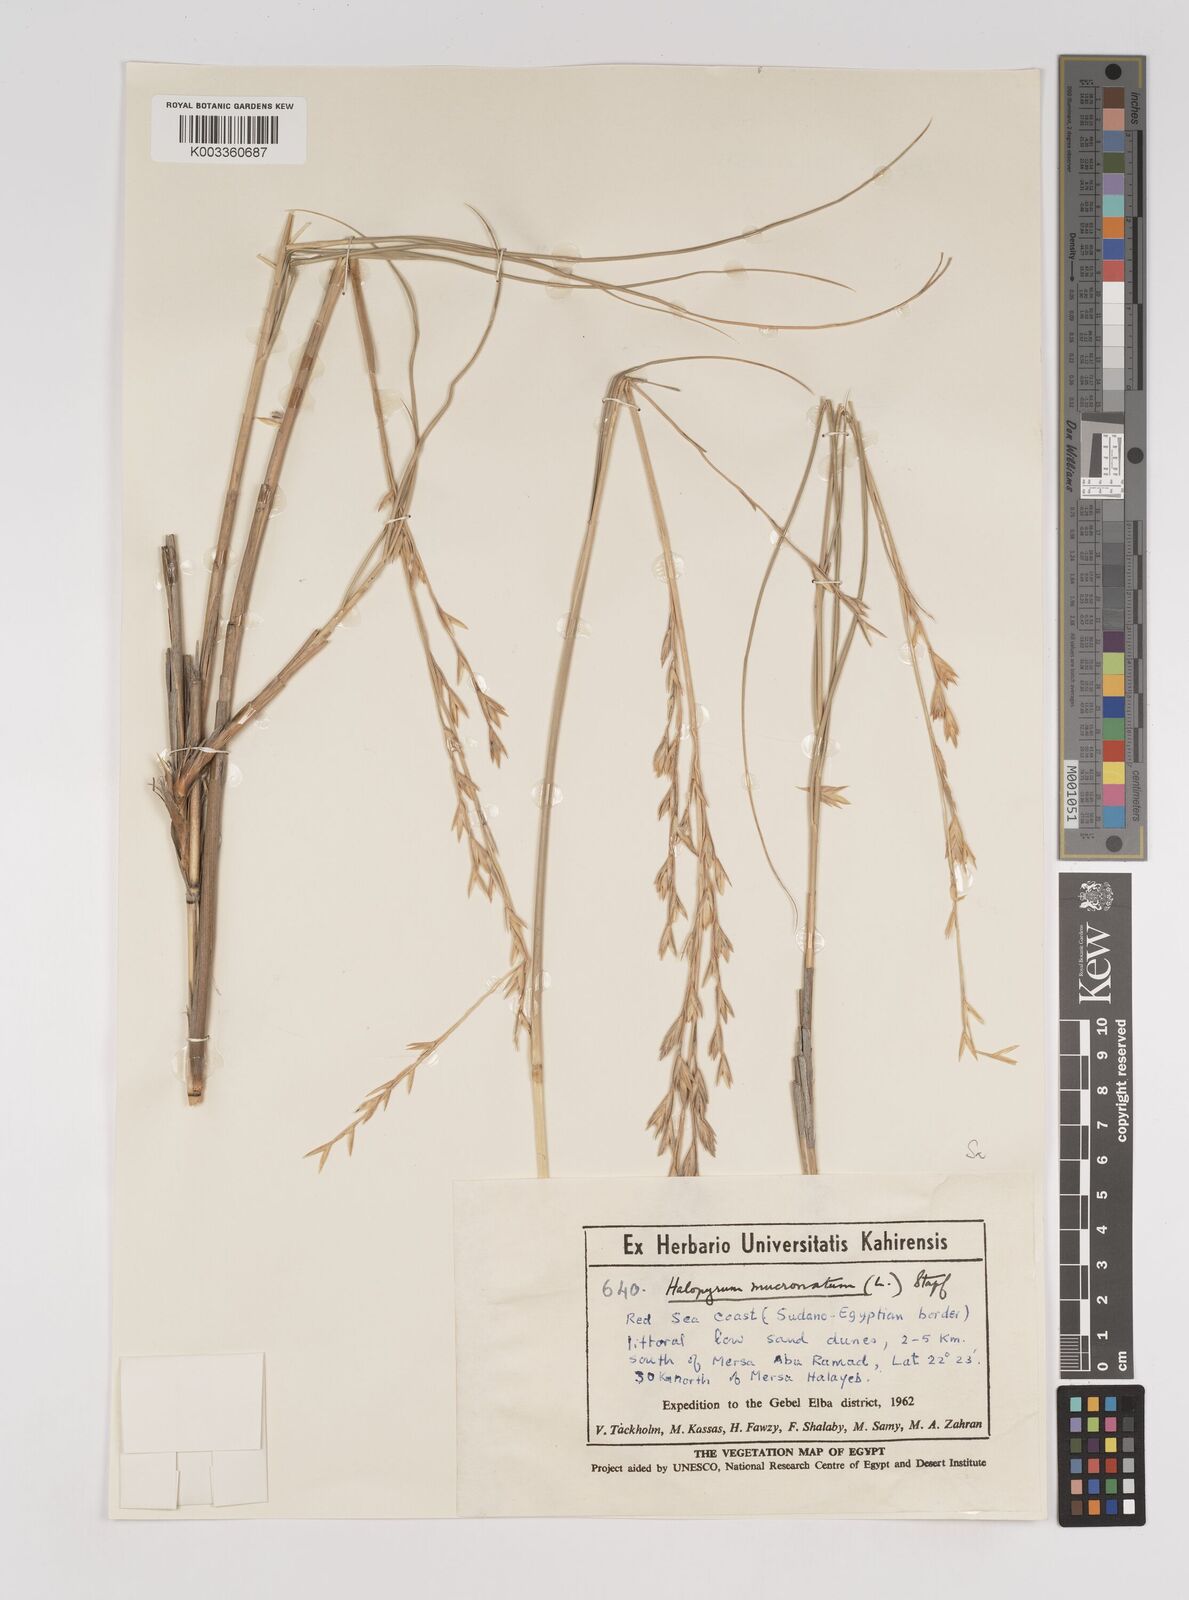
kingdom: Plantae
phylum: Tracheophyta
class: Liliopsida
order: Poales
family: Poaceae
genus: Halopyrum
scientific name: Halopyrum mucronatum
